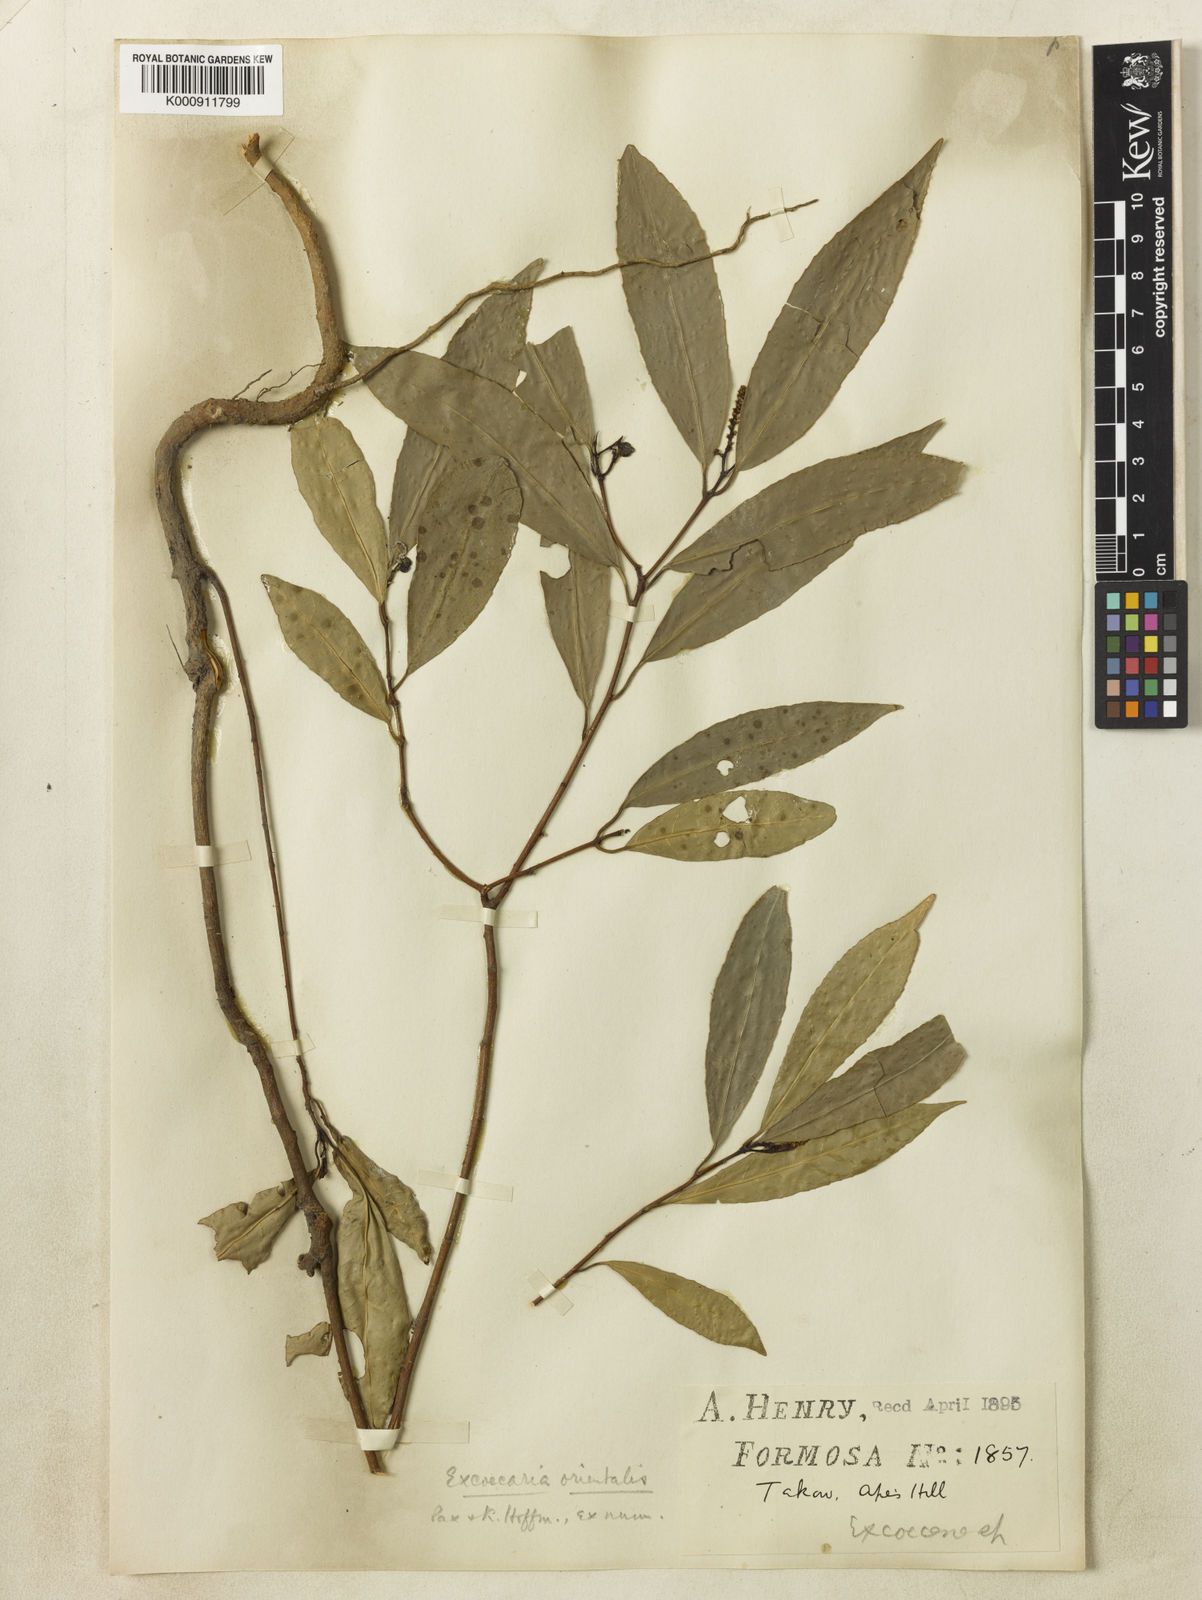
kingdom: Plantae
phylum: Tracheophyta
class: Magnoliopsida
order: Malpighiales
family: Euphorbiaceae
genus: Excoecaria
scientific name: Excoecaria cochinchinensis
